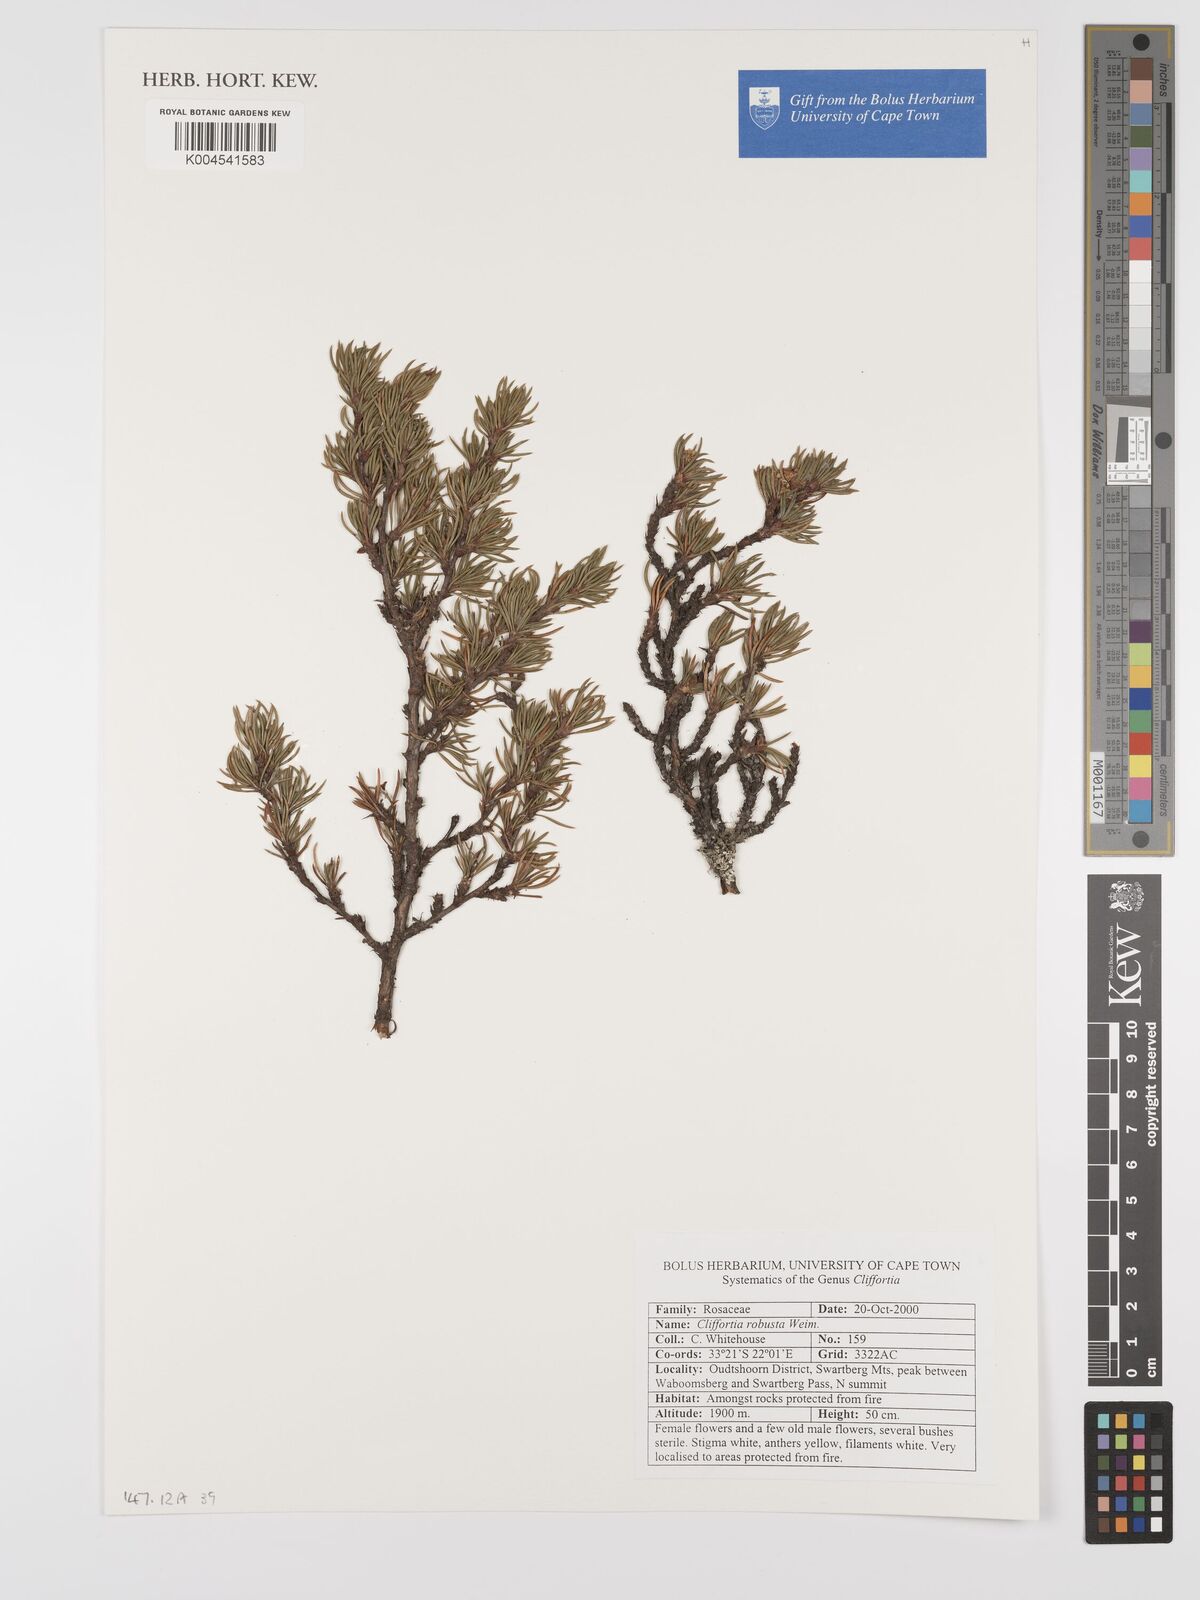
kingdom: Plantae
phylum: Tracheophyta
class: Magnoliopsida
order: Rosales
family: Rosaceae
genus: Cliffortia
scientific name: Cliffortia robusta
